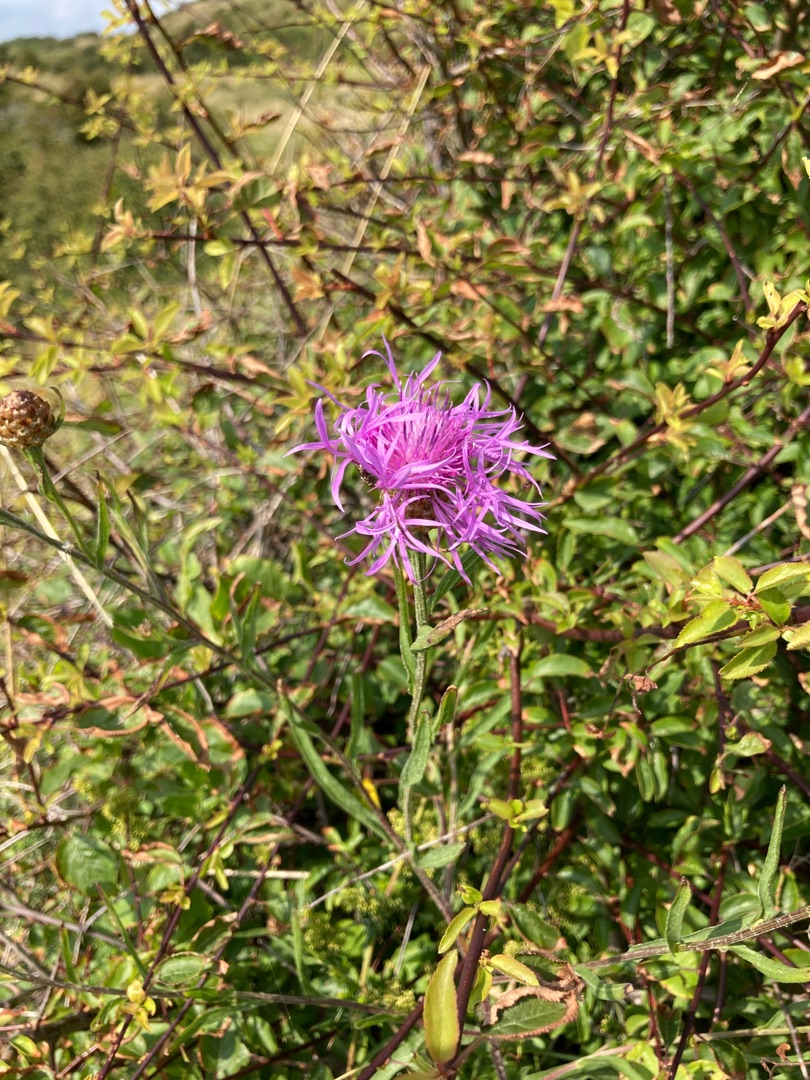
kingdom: Plantae
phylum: Tracheophyta
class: Magnoliopsida
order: Asterales
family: Asteraceae
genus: Centaurea
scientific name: Centaurea jacea
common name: Almindelig knopurt
